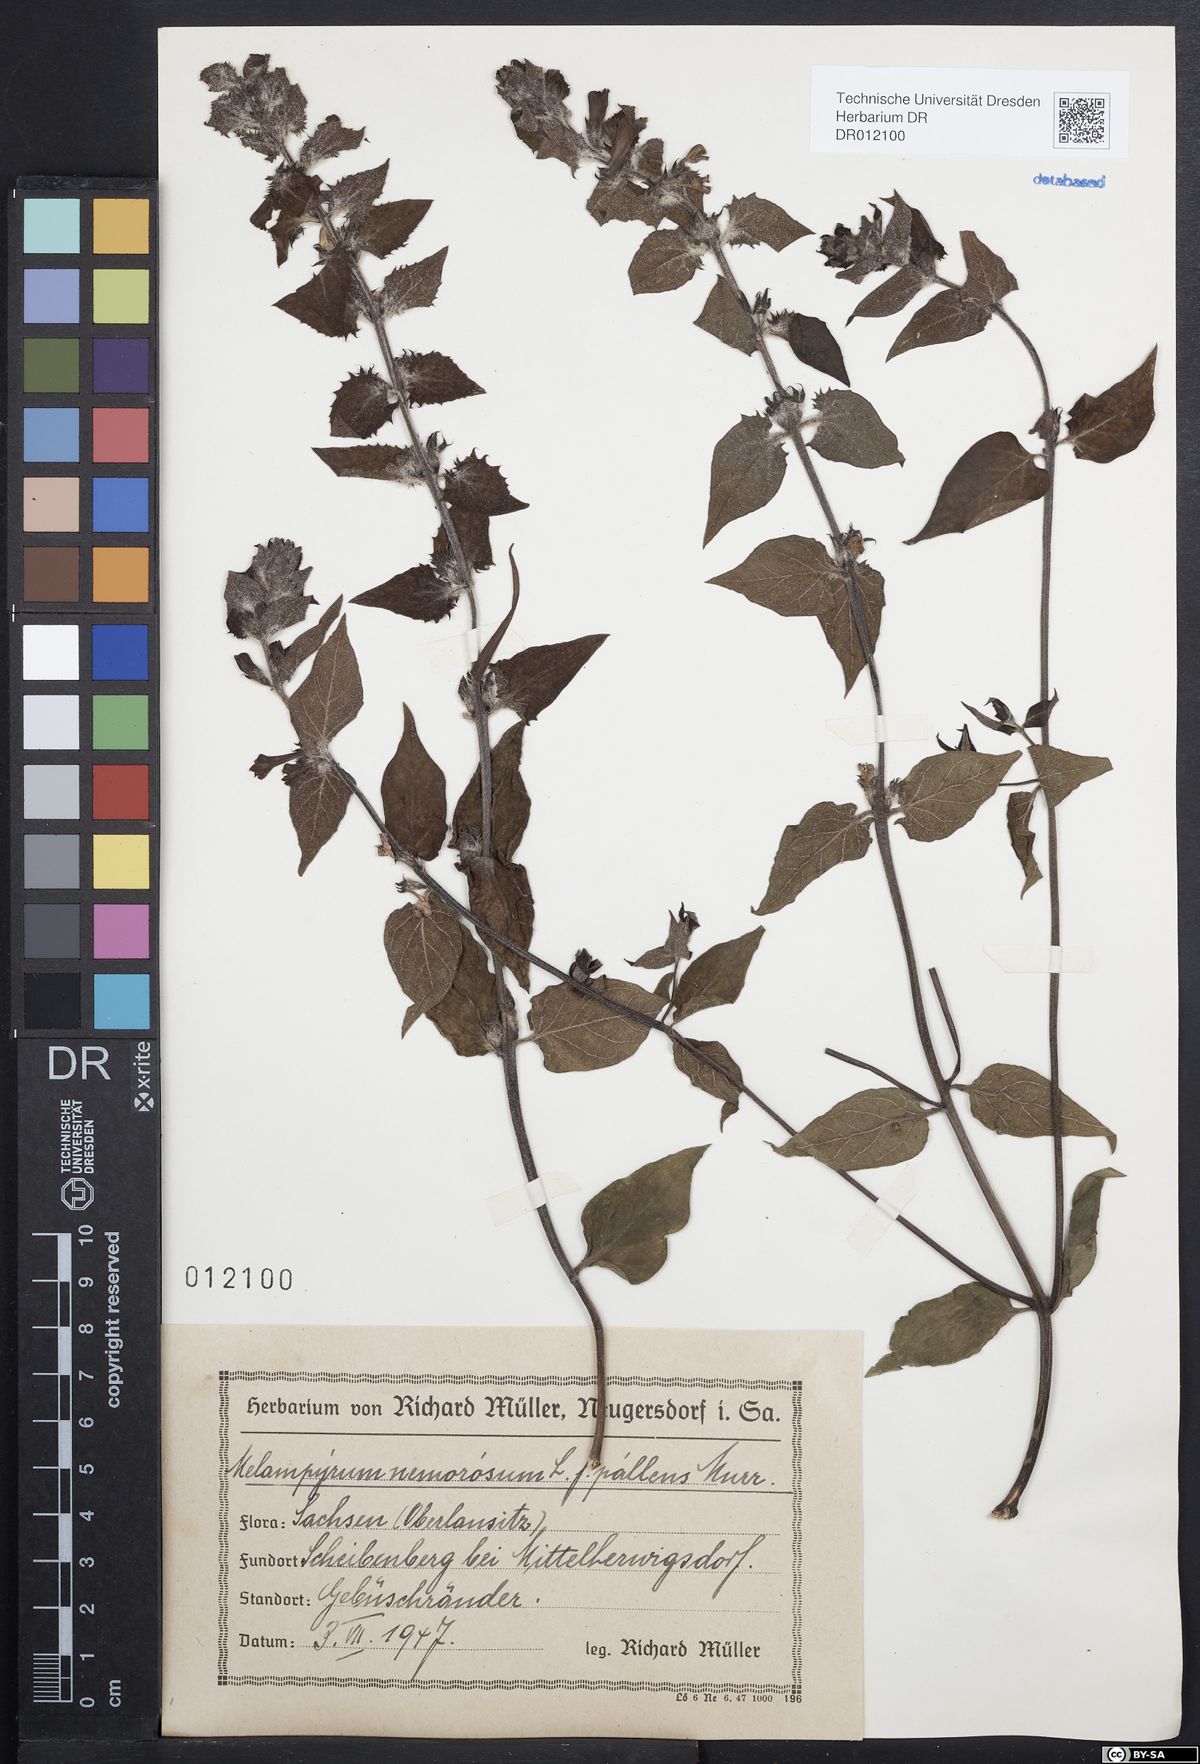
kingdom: Plantae
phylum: Tracheophyta
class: Magnoliopsida
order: Lamiales
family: Orobanchaceae
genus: Melampyrum
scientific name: Melampyrum nemorosum
